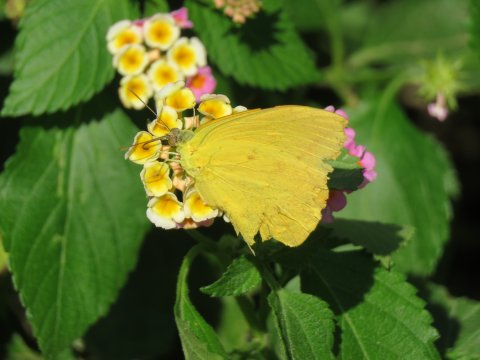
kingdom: Animalia
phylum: Arthropoda
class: Insecta
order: Lepidoptera
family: Pieridae
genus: Phoebis
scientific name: Phoebis agarithe
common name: Large Orange Sulphur
